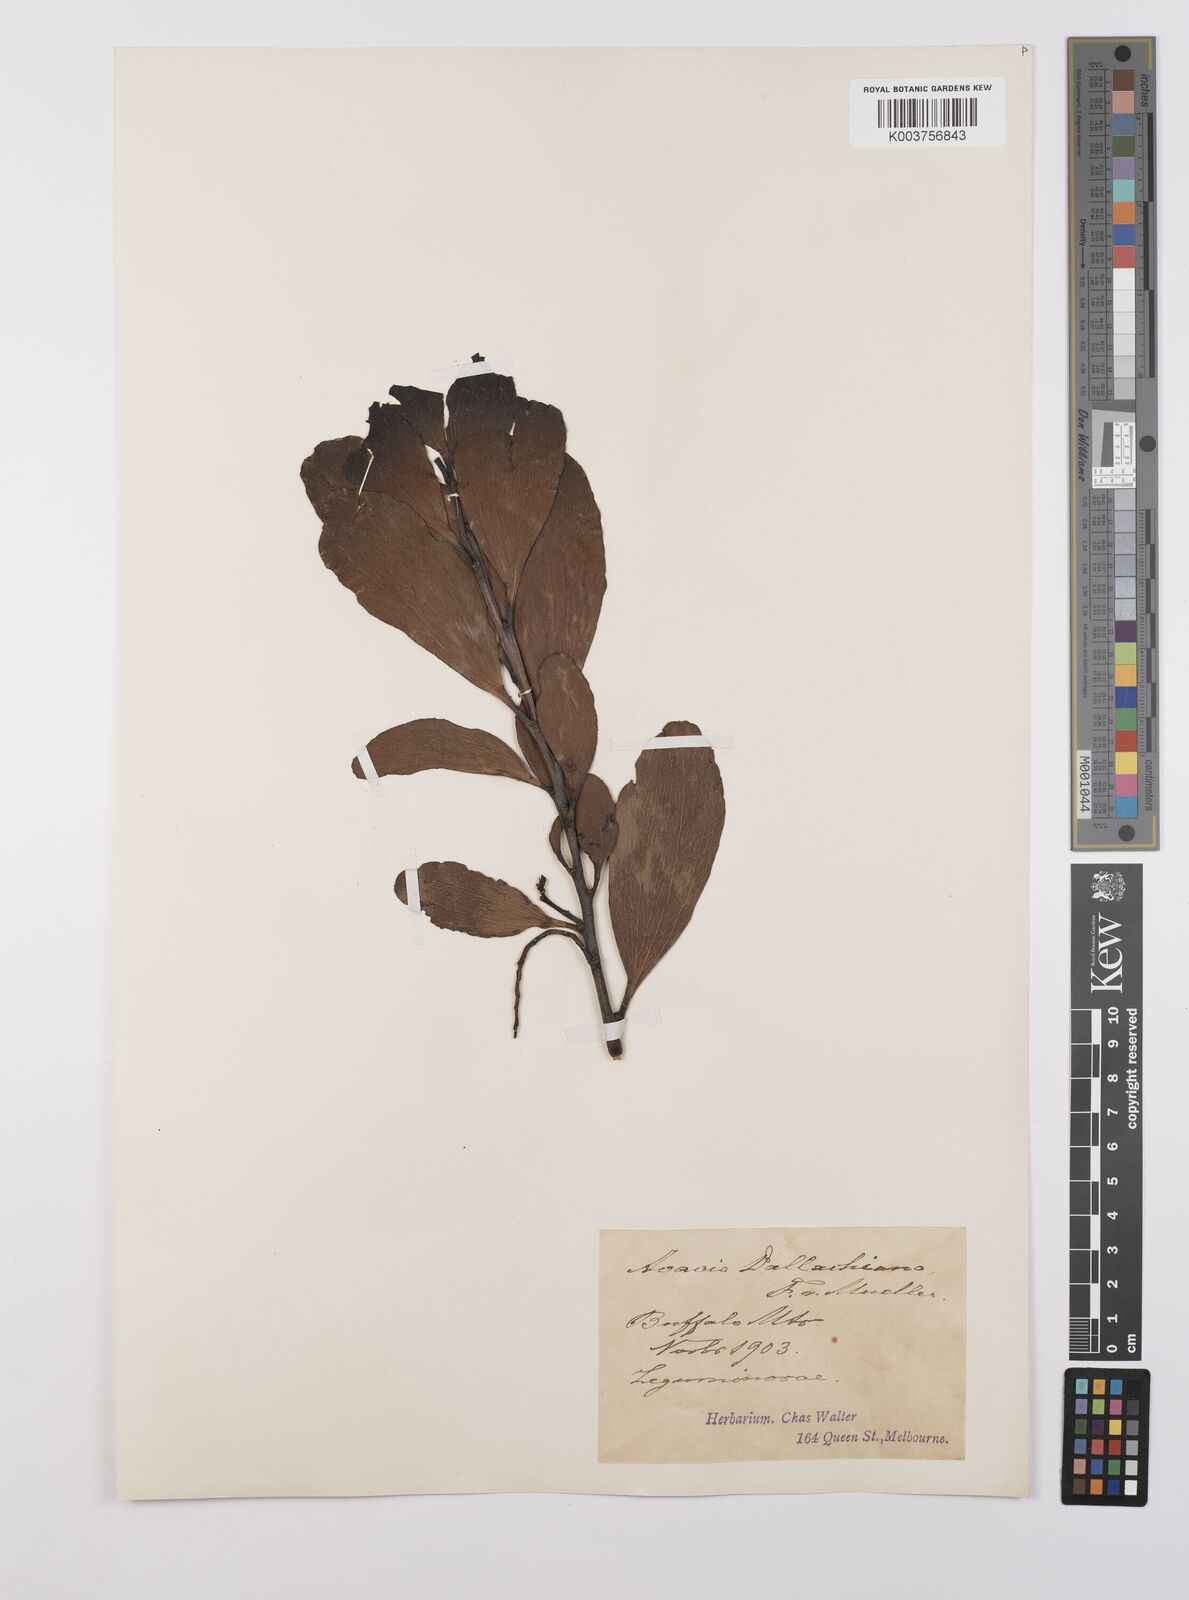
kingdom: Plantae
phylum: Tracheophyta
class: Magnoliopsida
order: Fabales
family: Fabaceae
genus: Acacia
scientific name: Acacia dallachiana
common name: Catkin wattle
